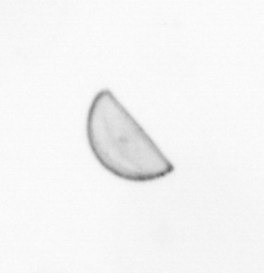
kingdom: Chromista
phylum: Ochrophyta
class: Bacillariophyceae
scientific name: Bacillariophyceae
